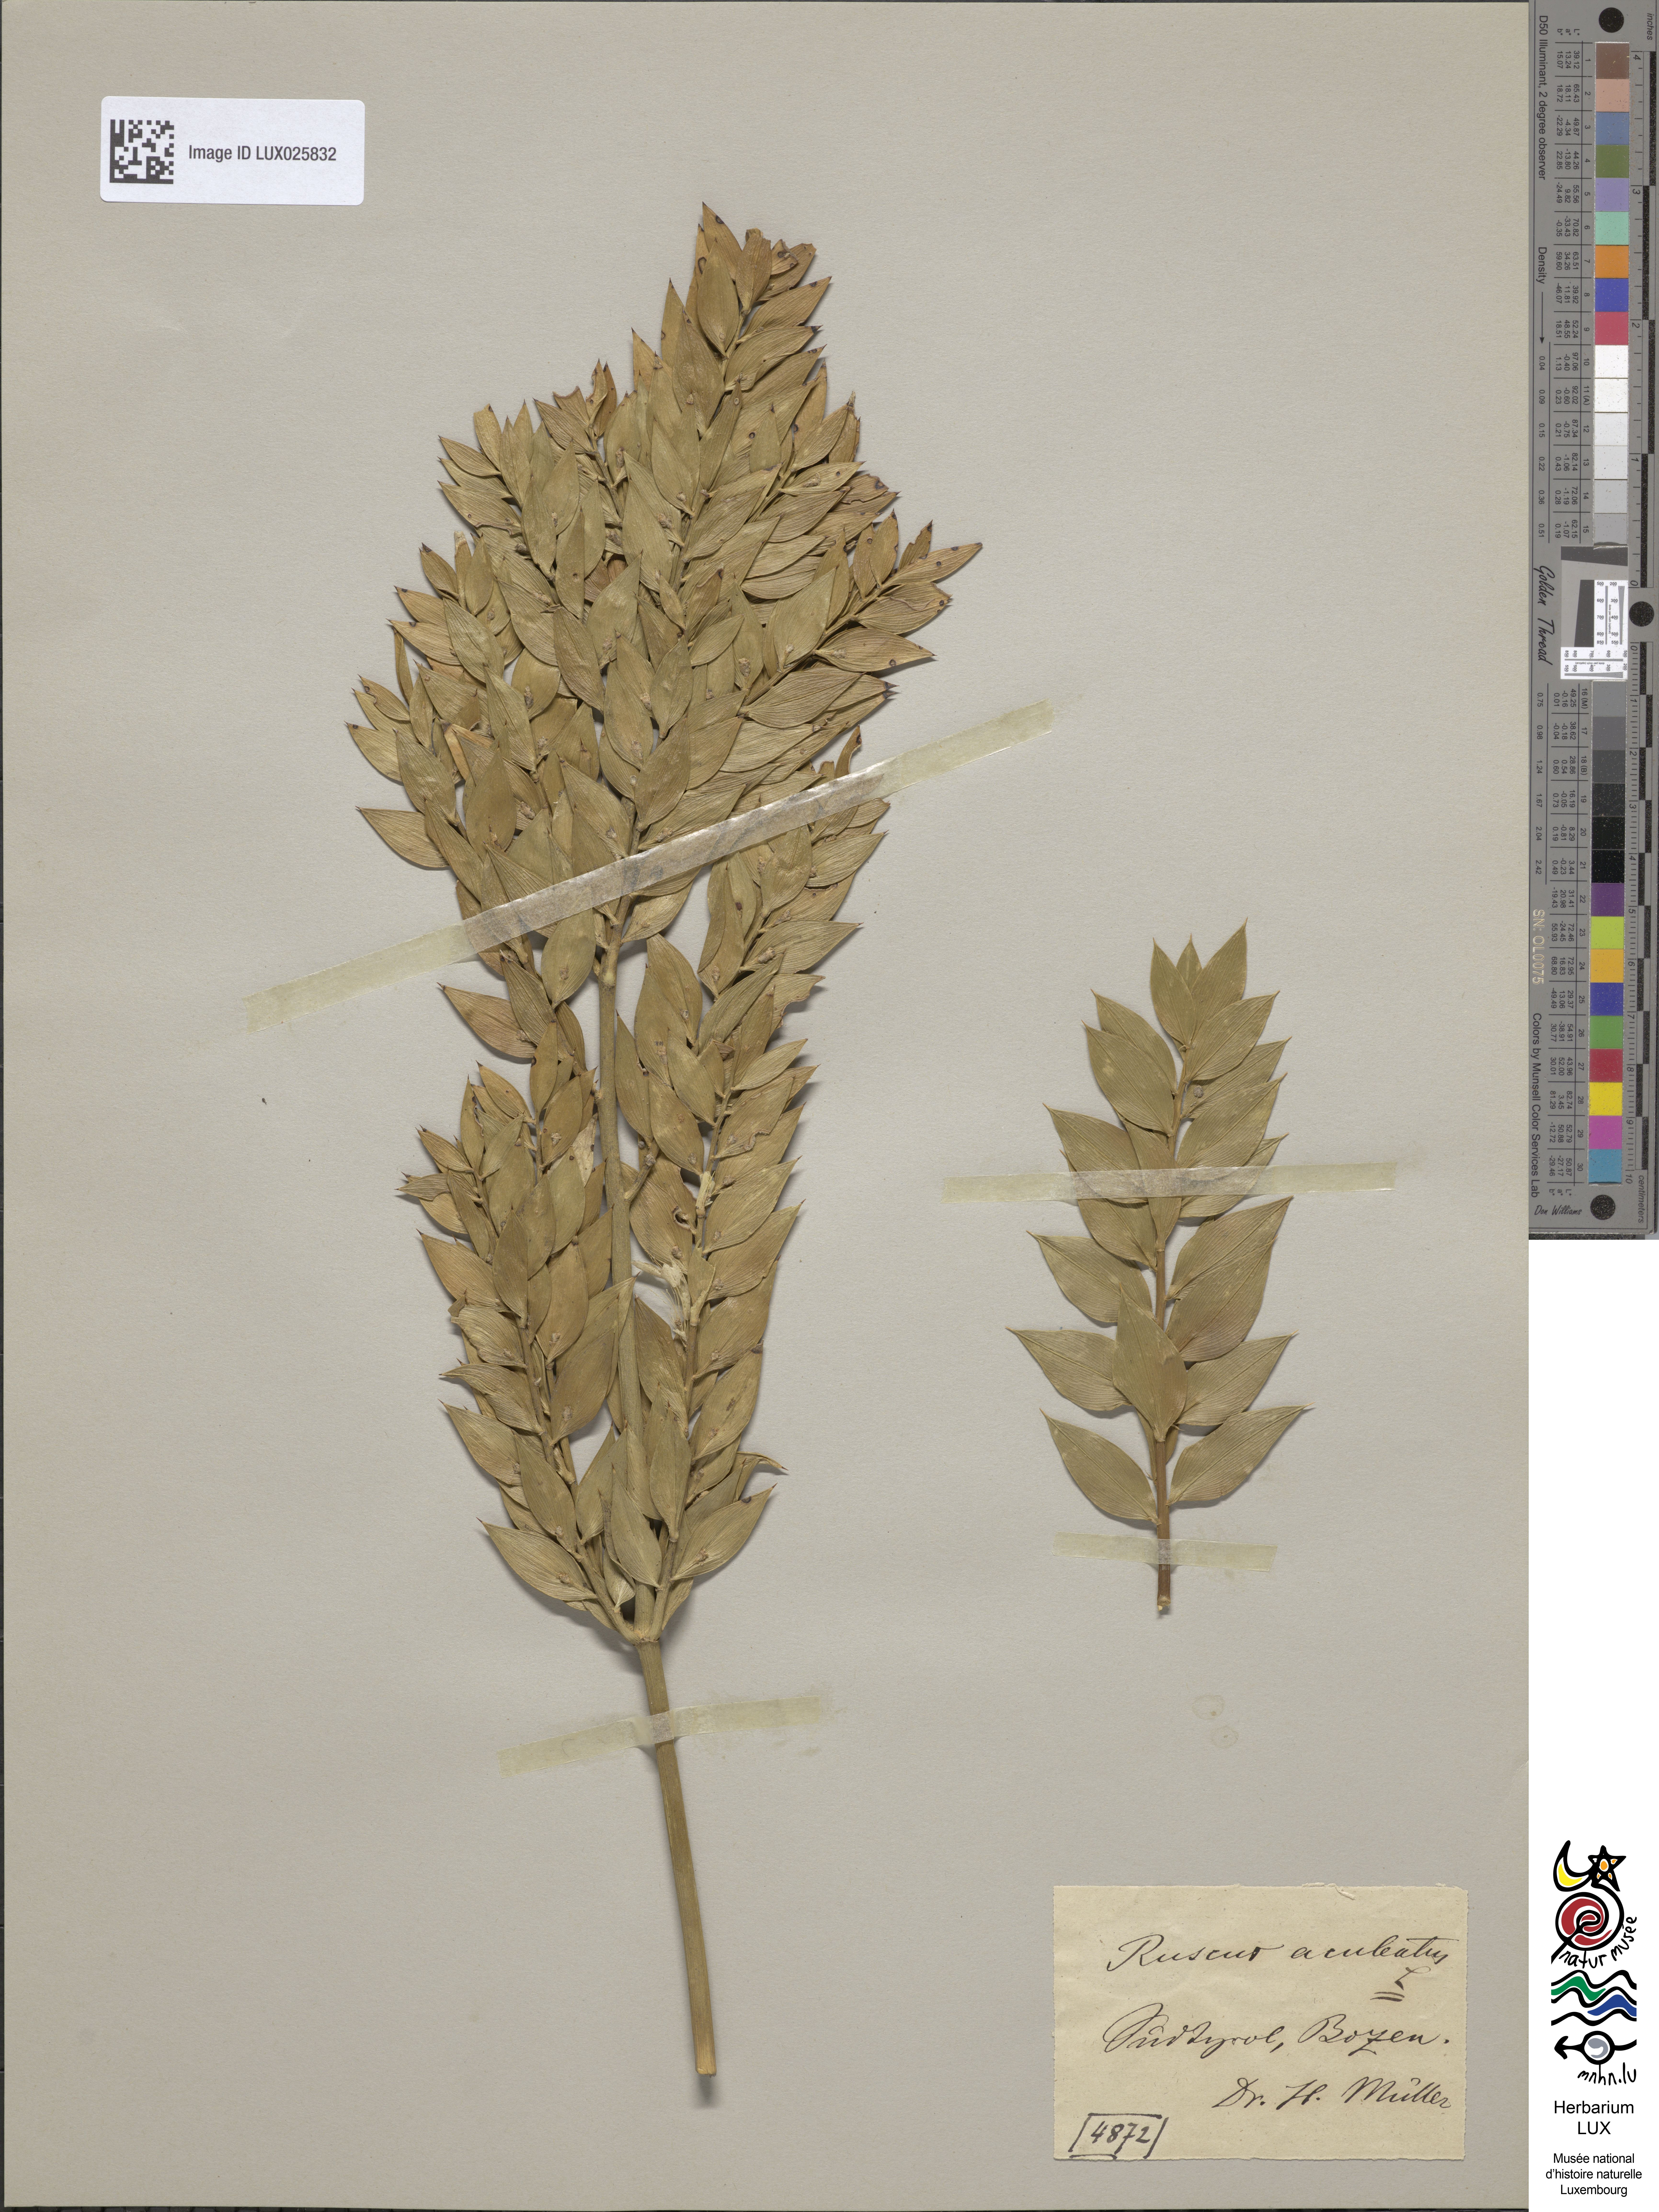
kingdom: Plantae
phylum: Tracheophyta
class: Liliopsida
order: Asparagales
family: Asparagaceae
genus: Ruscus
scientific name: Ruscus aculeatus
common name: Butcher's-broom
